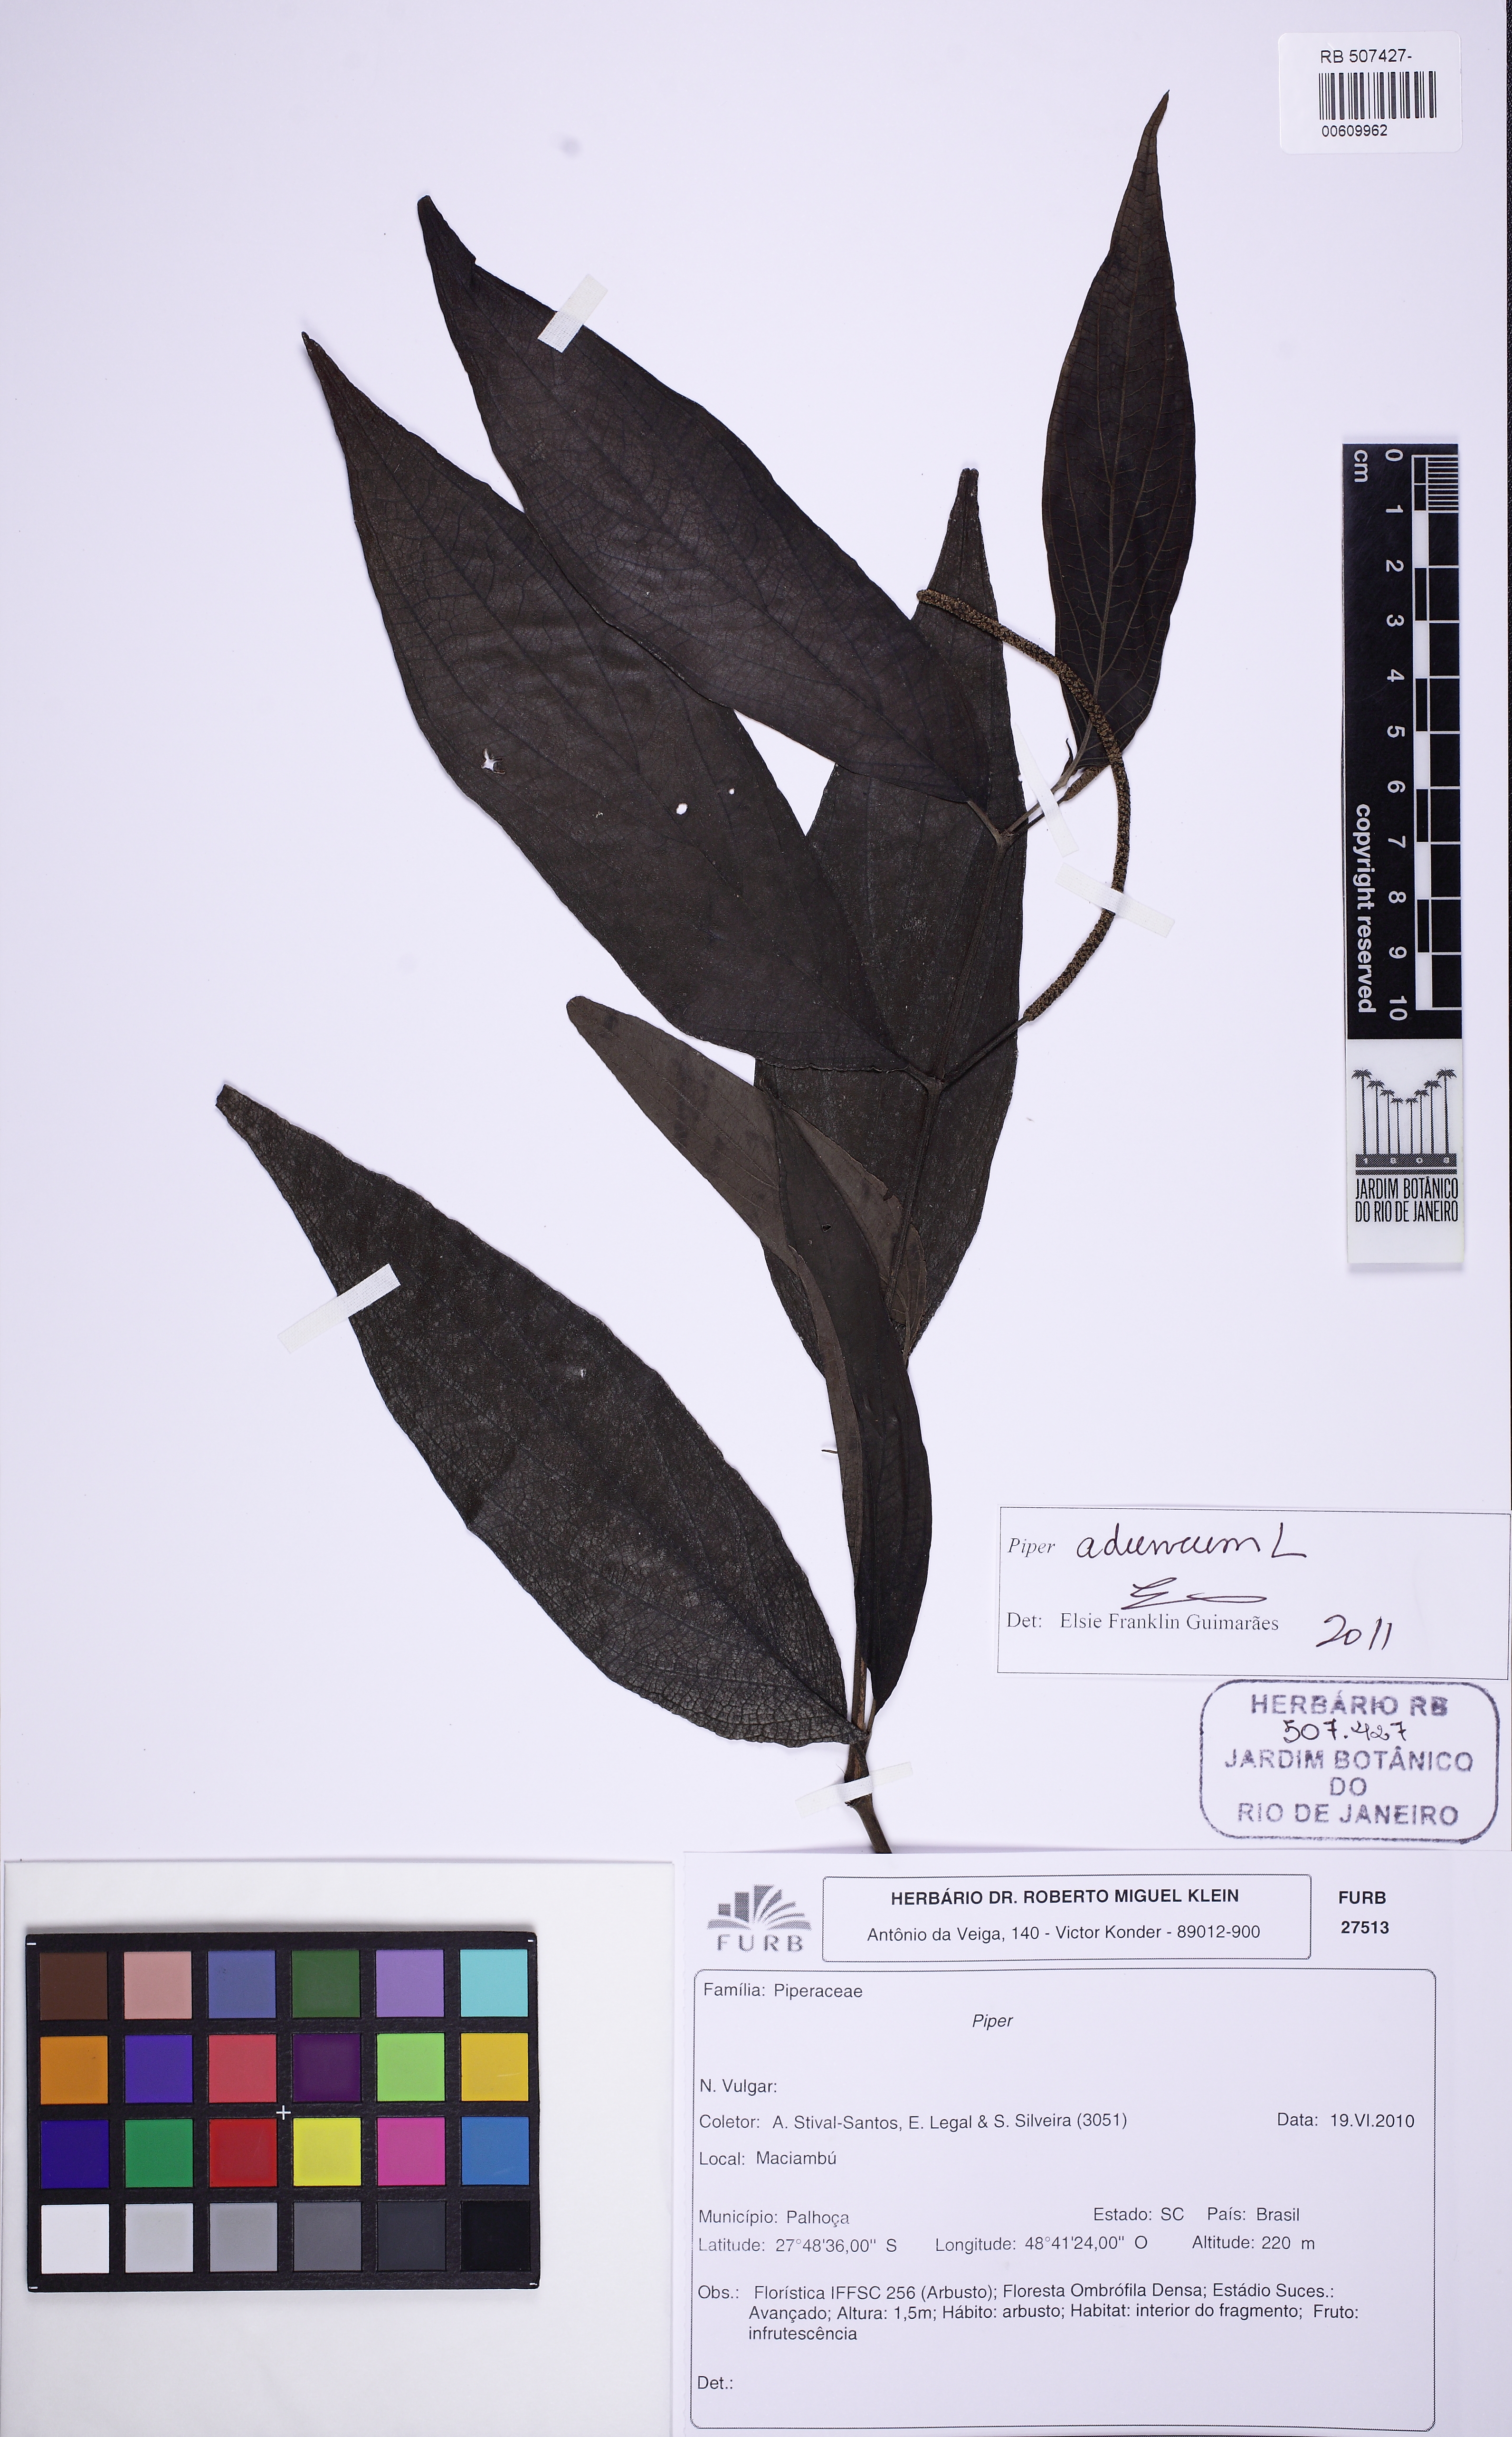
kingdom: Plantae
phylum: Tracheophyta
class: Magnoliopsida
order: Piperales
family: Piperaceae
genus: Piper
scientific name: Piper aduncum
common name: Spiked pepper
